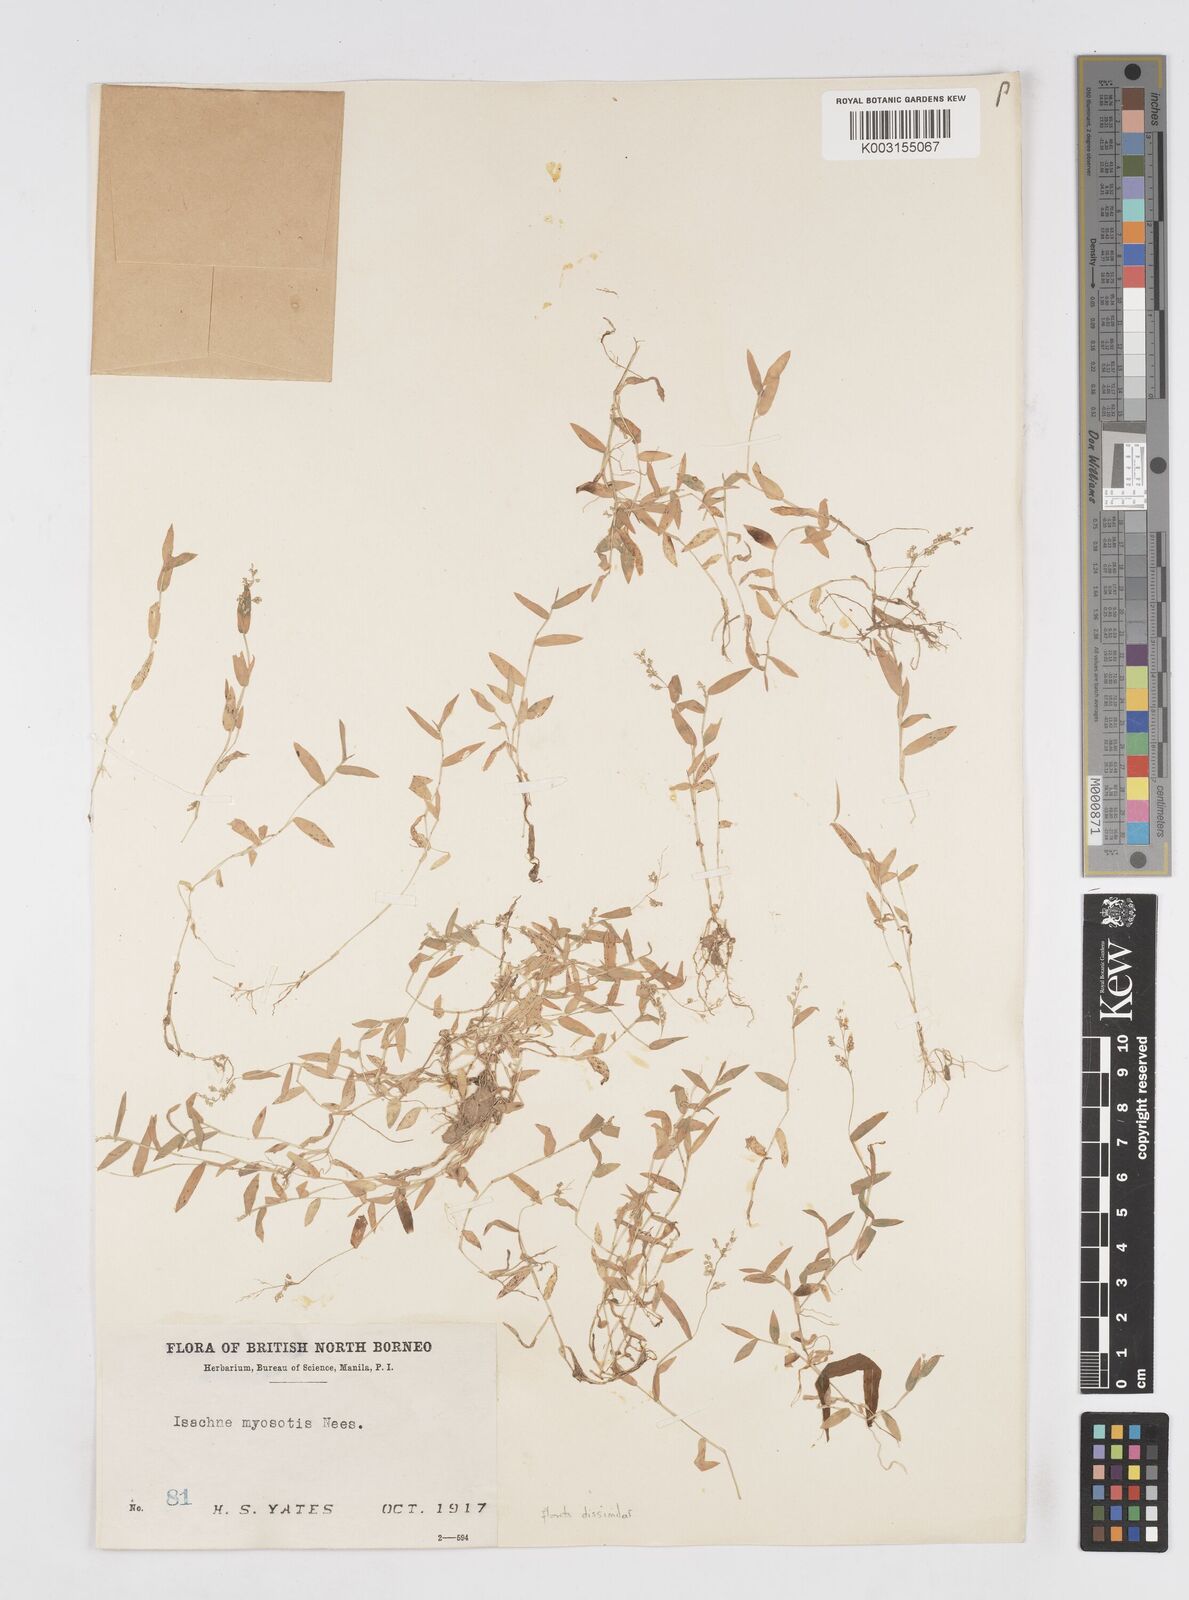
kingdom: Plantae
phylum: Tracheophyta
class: Liliopsida
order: Poales
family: Poaceae
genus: Isachne
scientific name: Isachne polygonoides
